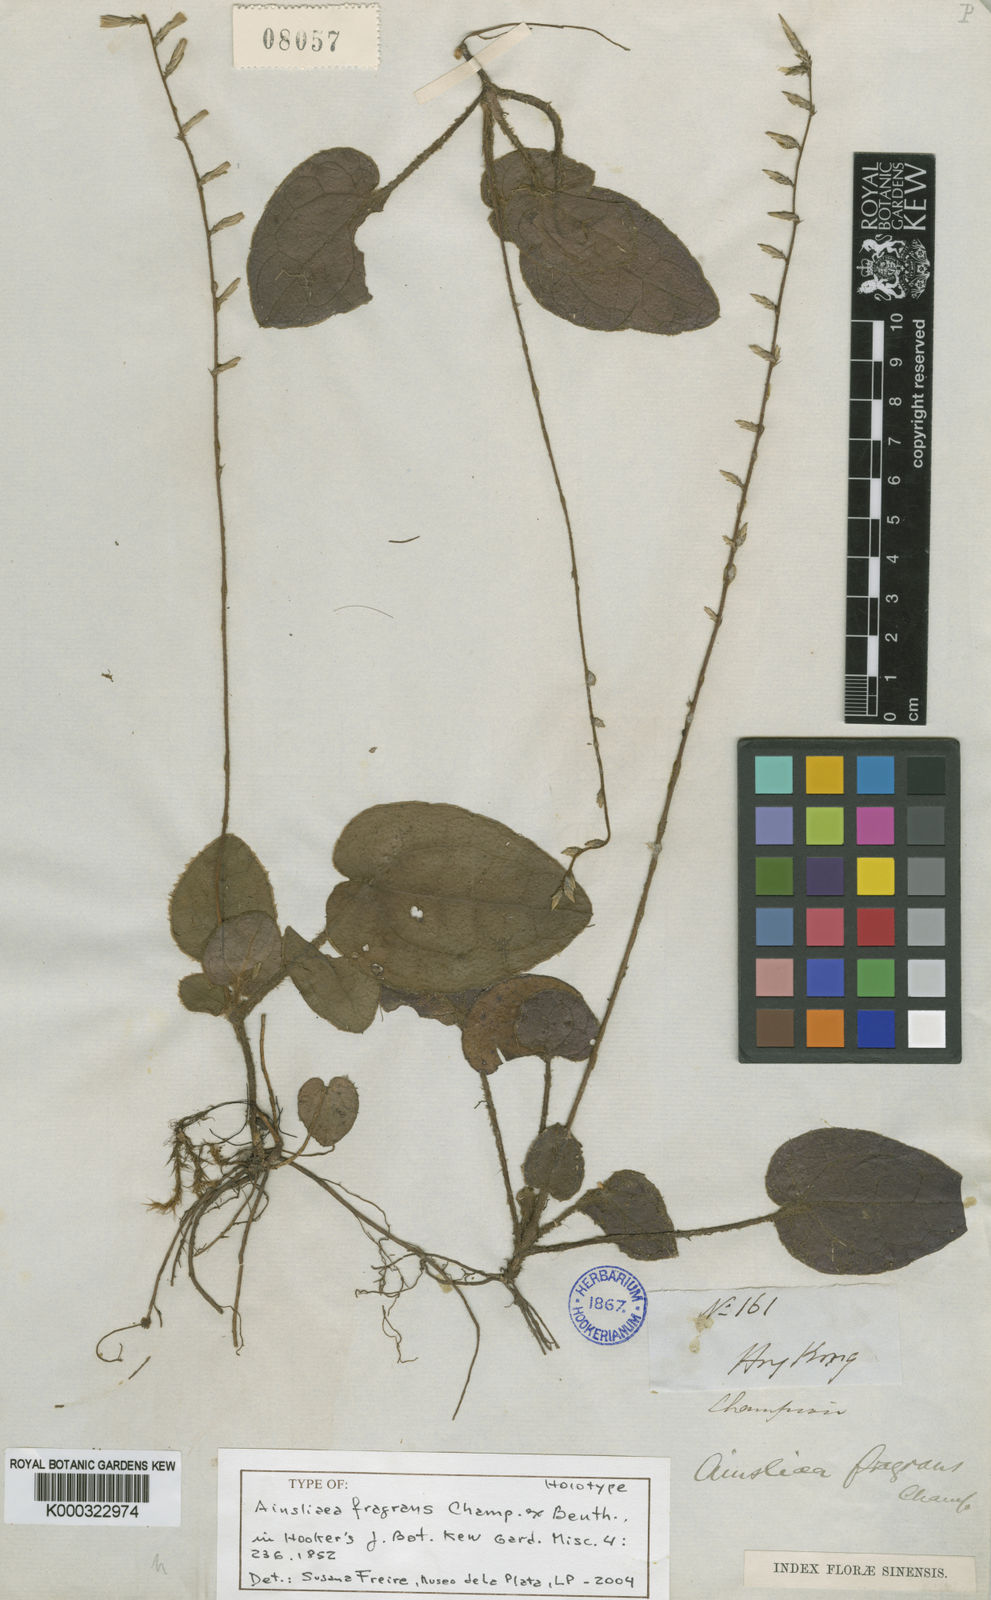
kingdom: Plantae
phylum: Tracheophyta
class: Magnoliopsida
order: Asterales
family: Asteraceae
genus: Ainsliaea
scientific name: Ainsliaea fragrans
